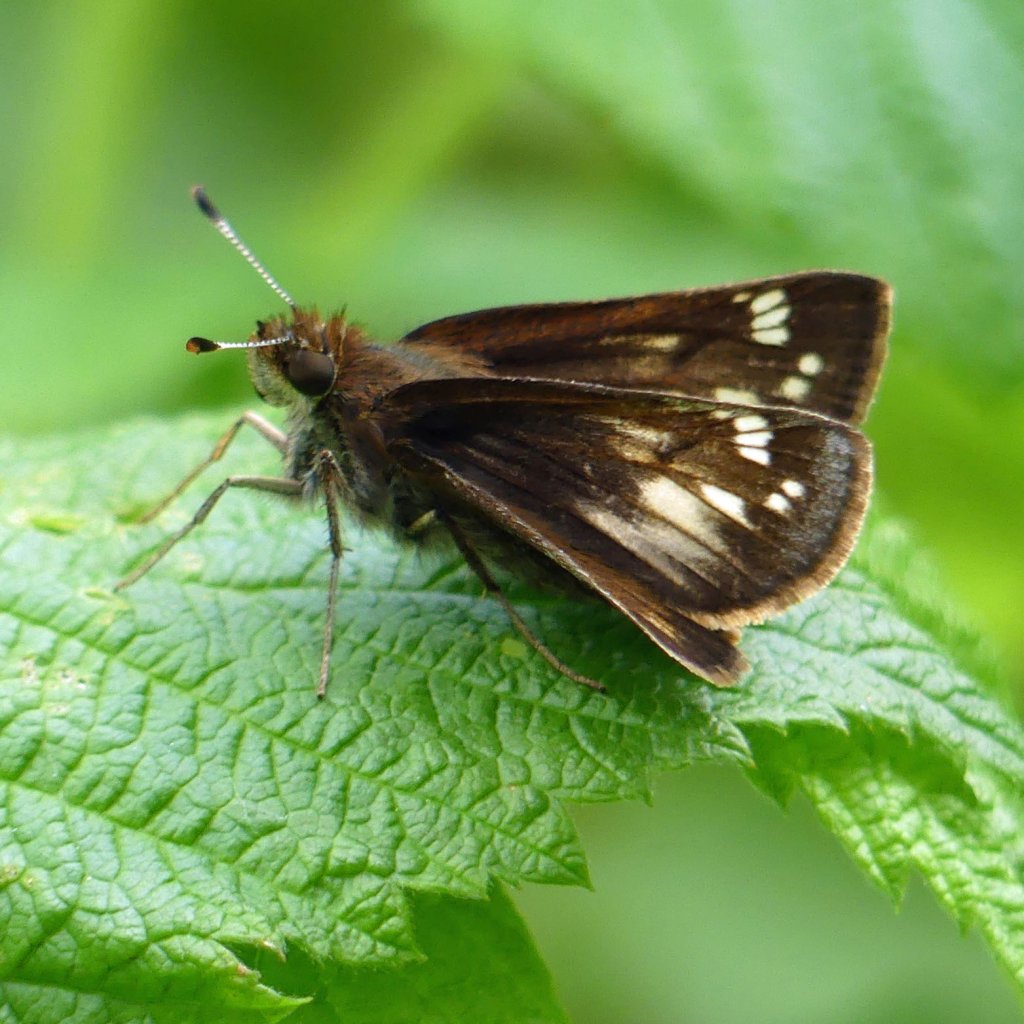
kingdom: Animalia
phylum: Arthropoda
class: Insecta
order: Lepidoptera
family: Hesperiidae
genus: Lon
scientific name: Lon hobomok
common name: Hobomok Skipper
